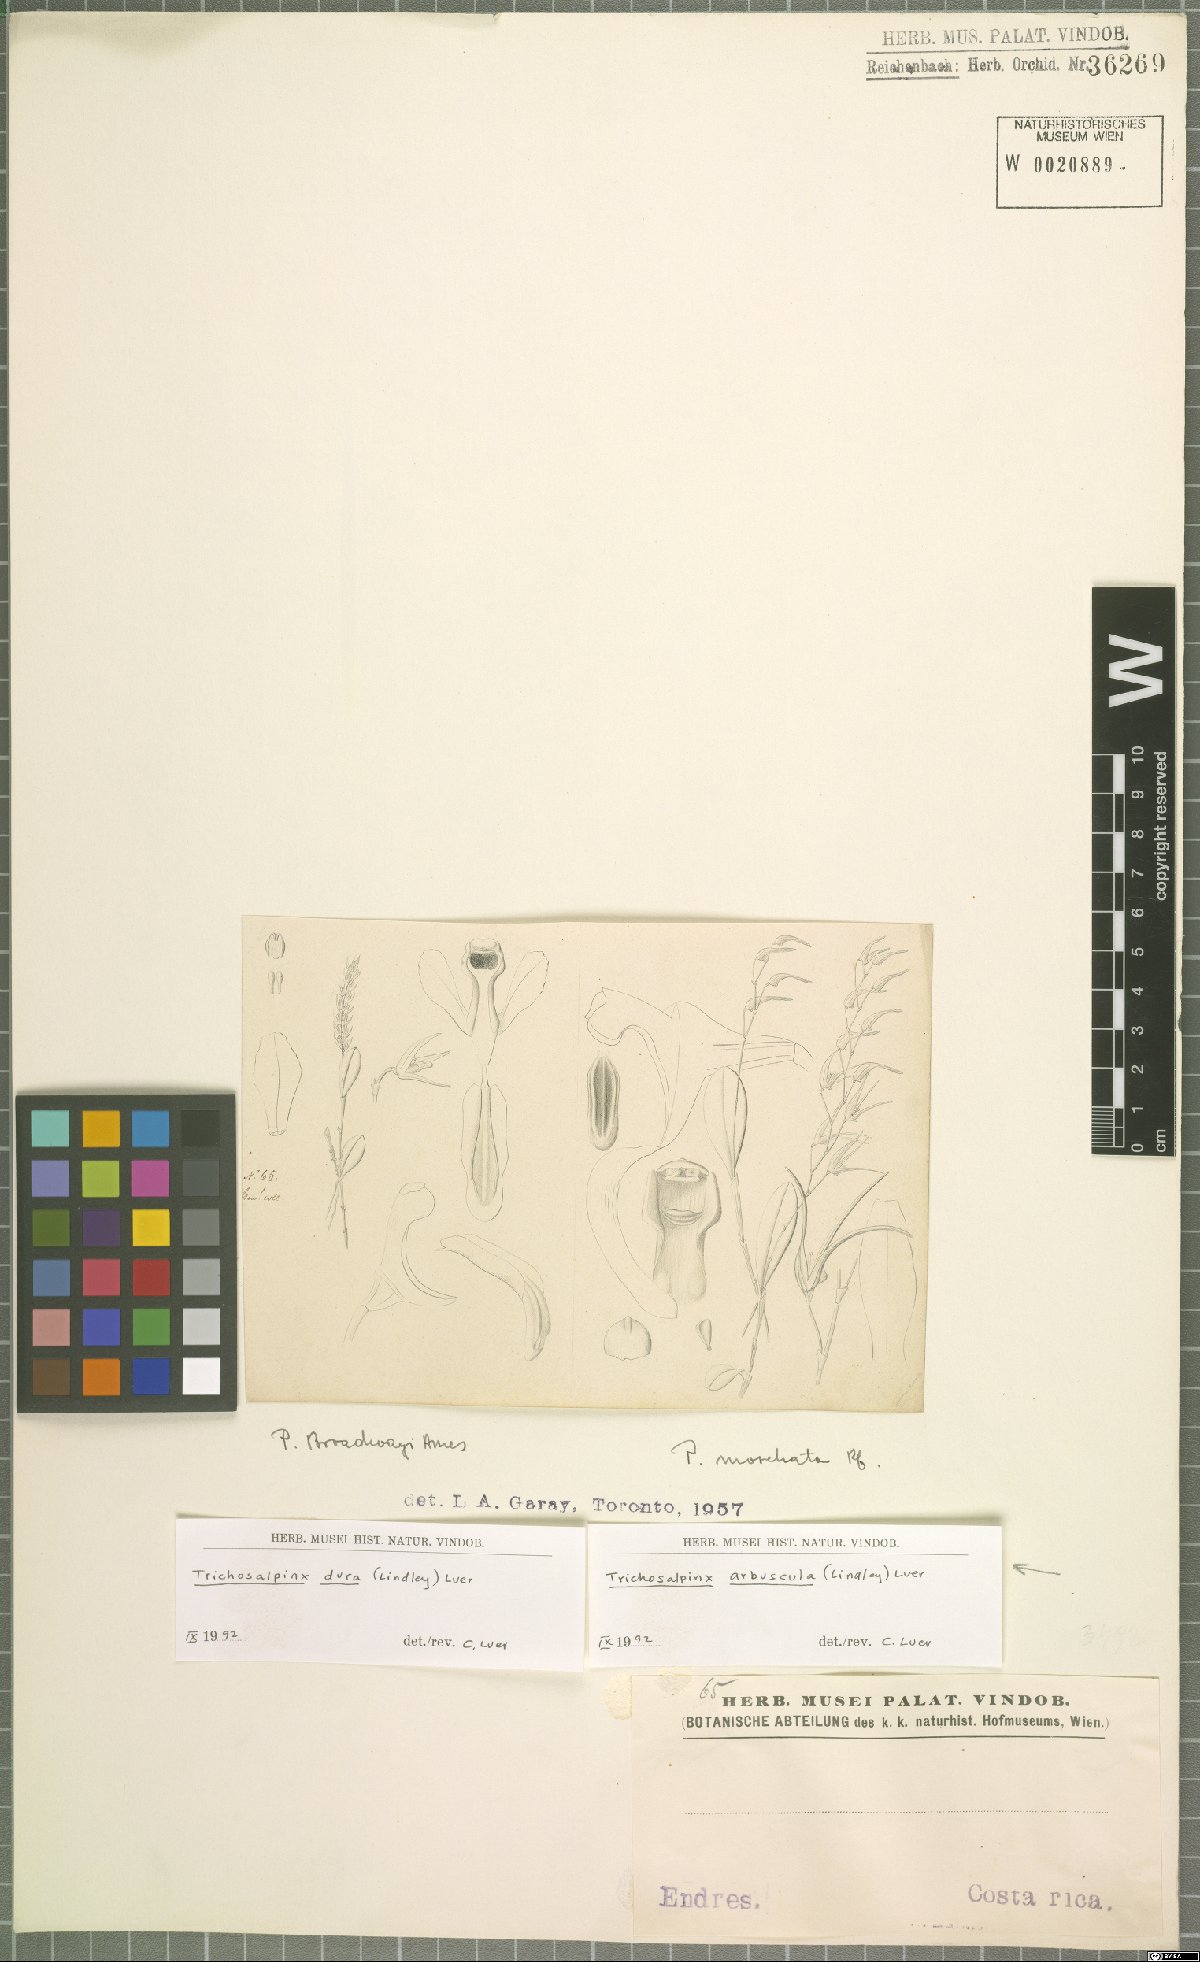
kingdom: Plantae
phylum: Tracheophyta
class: Liliopsida
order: Asparagales
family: Orchidaceae
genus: Trichosalpinx
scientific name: Trichosalpinx arbuscula
